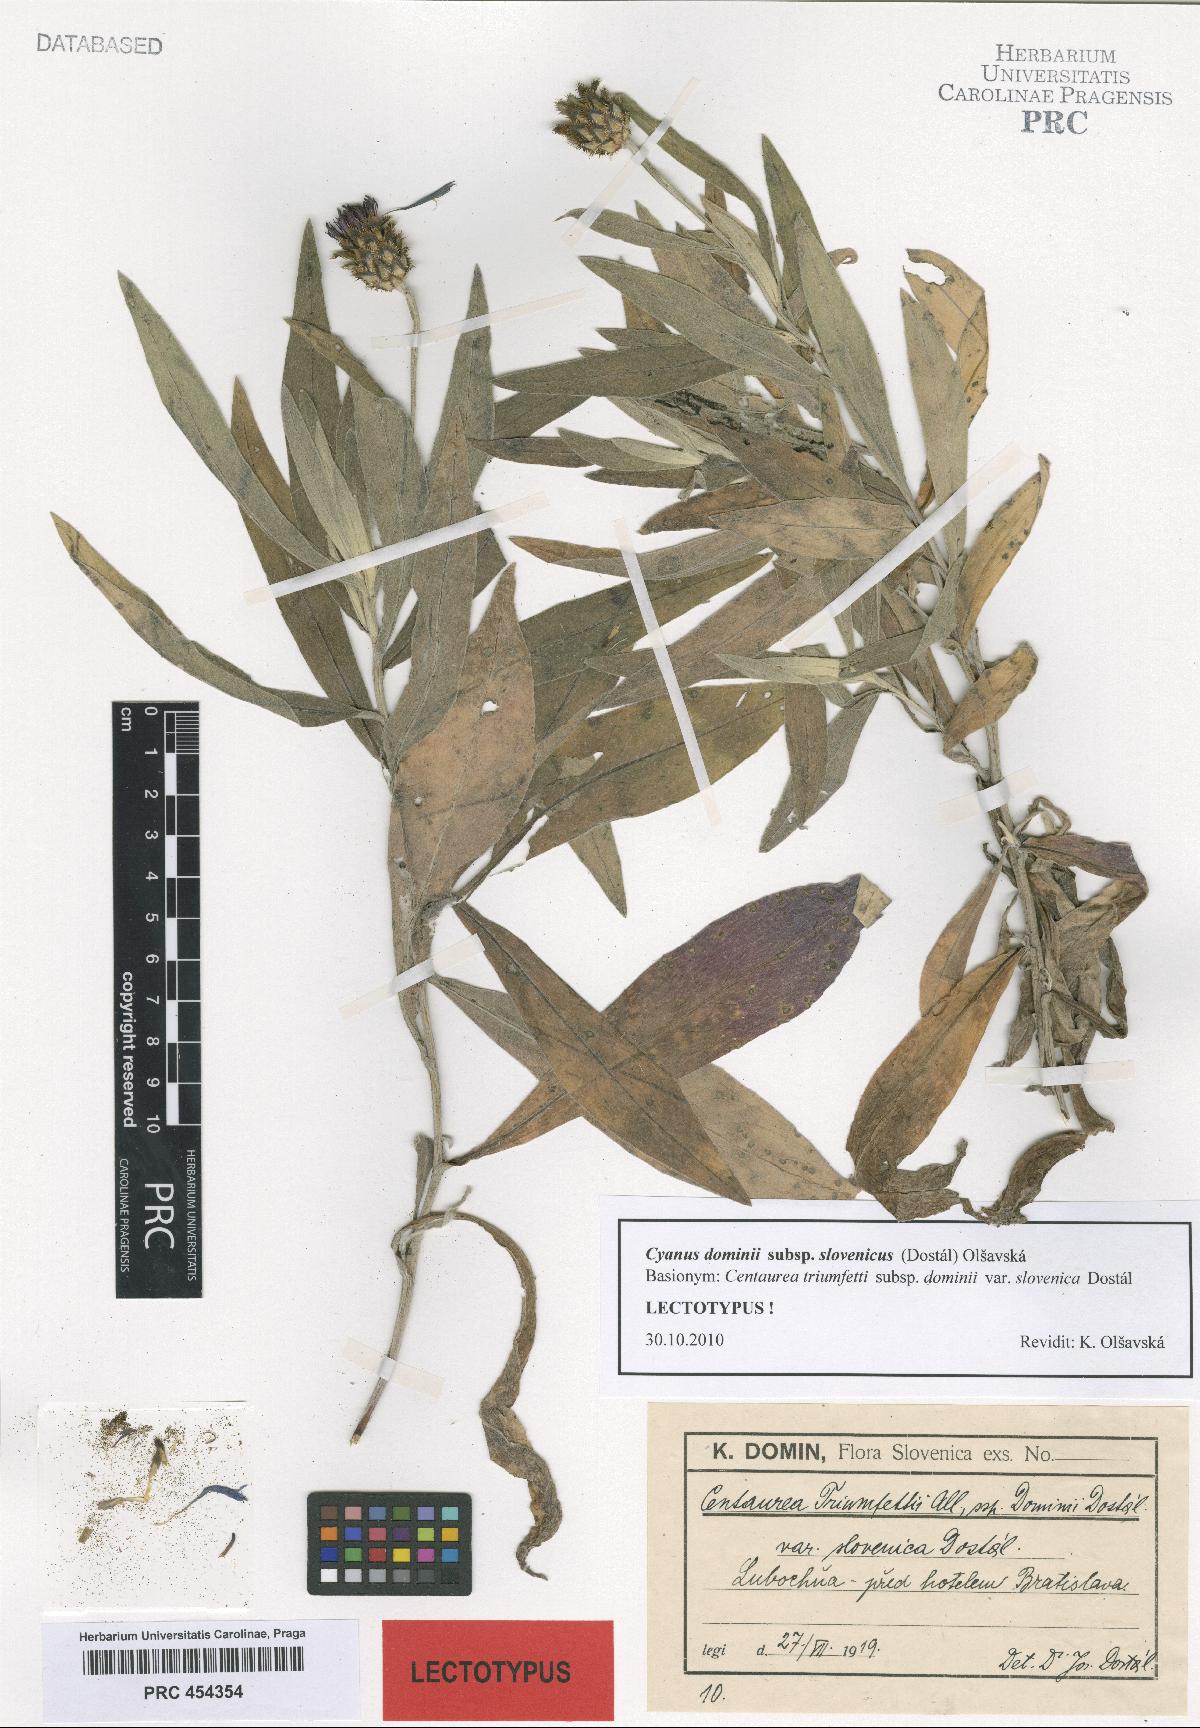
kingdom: Plantae
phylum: Tracheophyta
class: Magnoliopsida
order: Asterales
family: Asteraceae
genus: Centaurea
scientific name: Centaurea dominii
